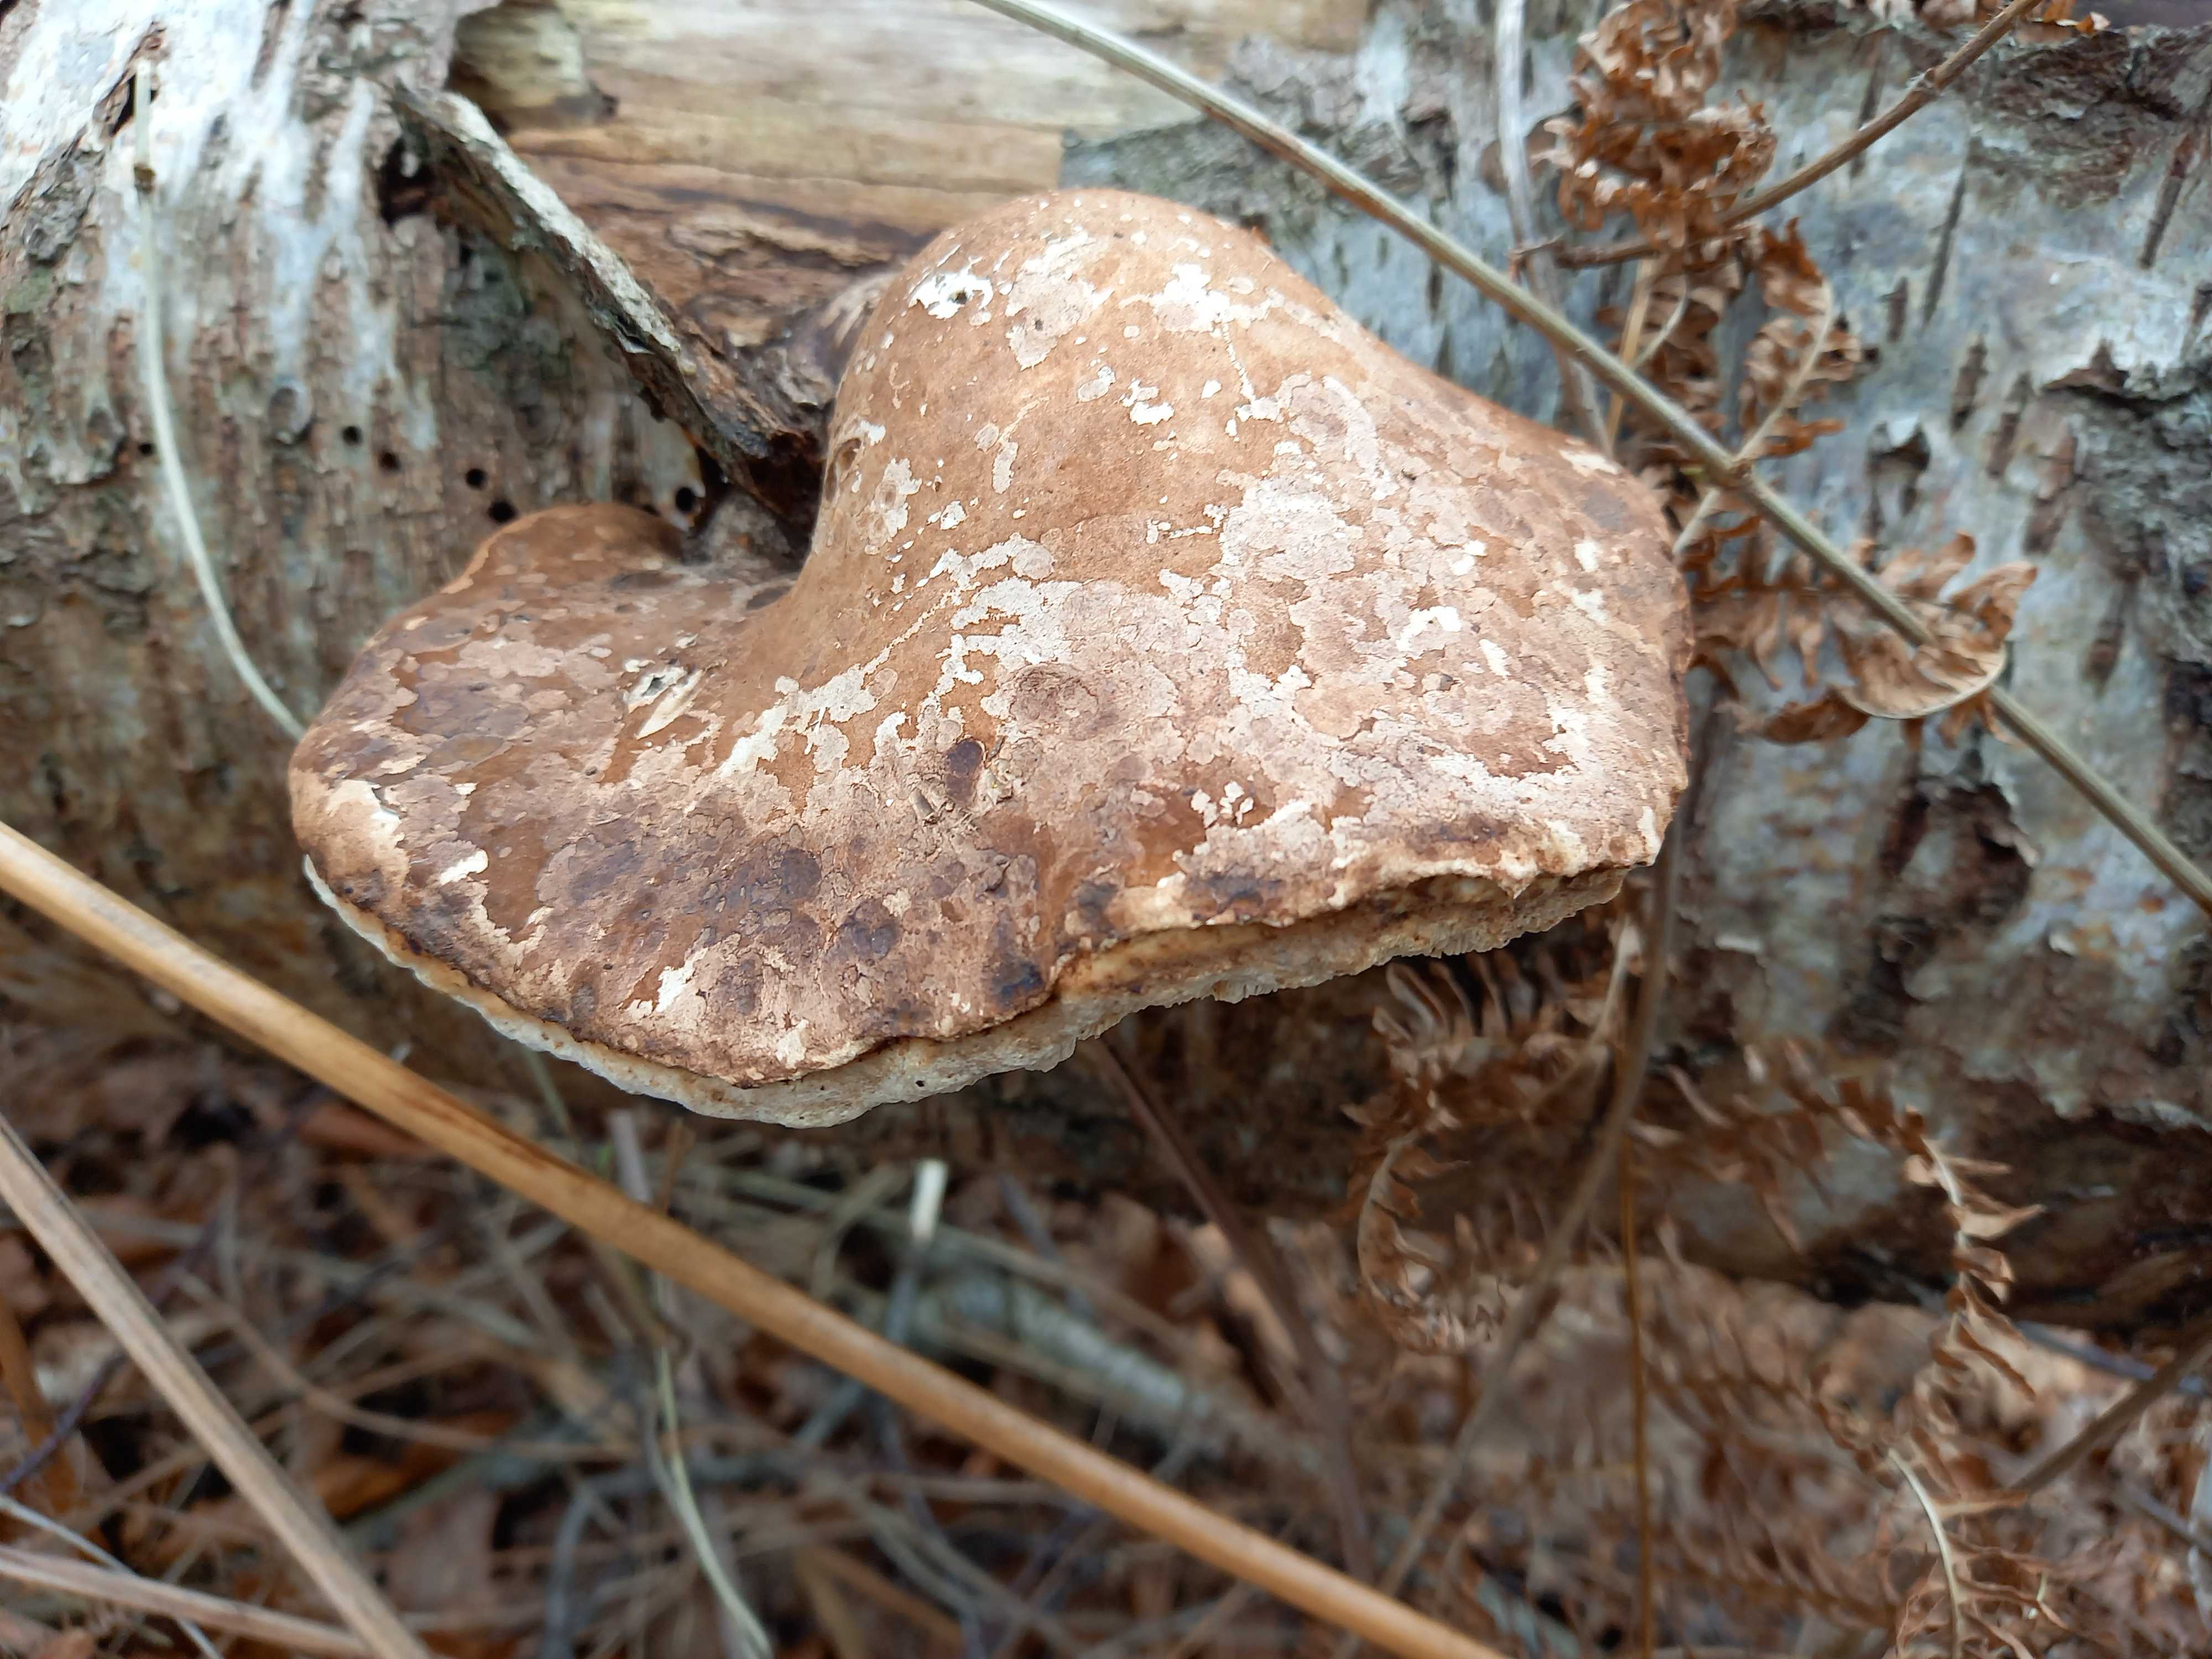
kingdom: Fungi
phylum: Basidiomycota
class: Agaricomycetes
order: Polyporales
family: Fomitopsidaceae
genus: Fomitopsis
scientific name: Fomitopsis betulina
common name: birkeporesvamp
